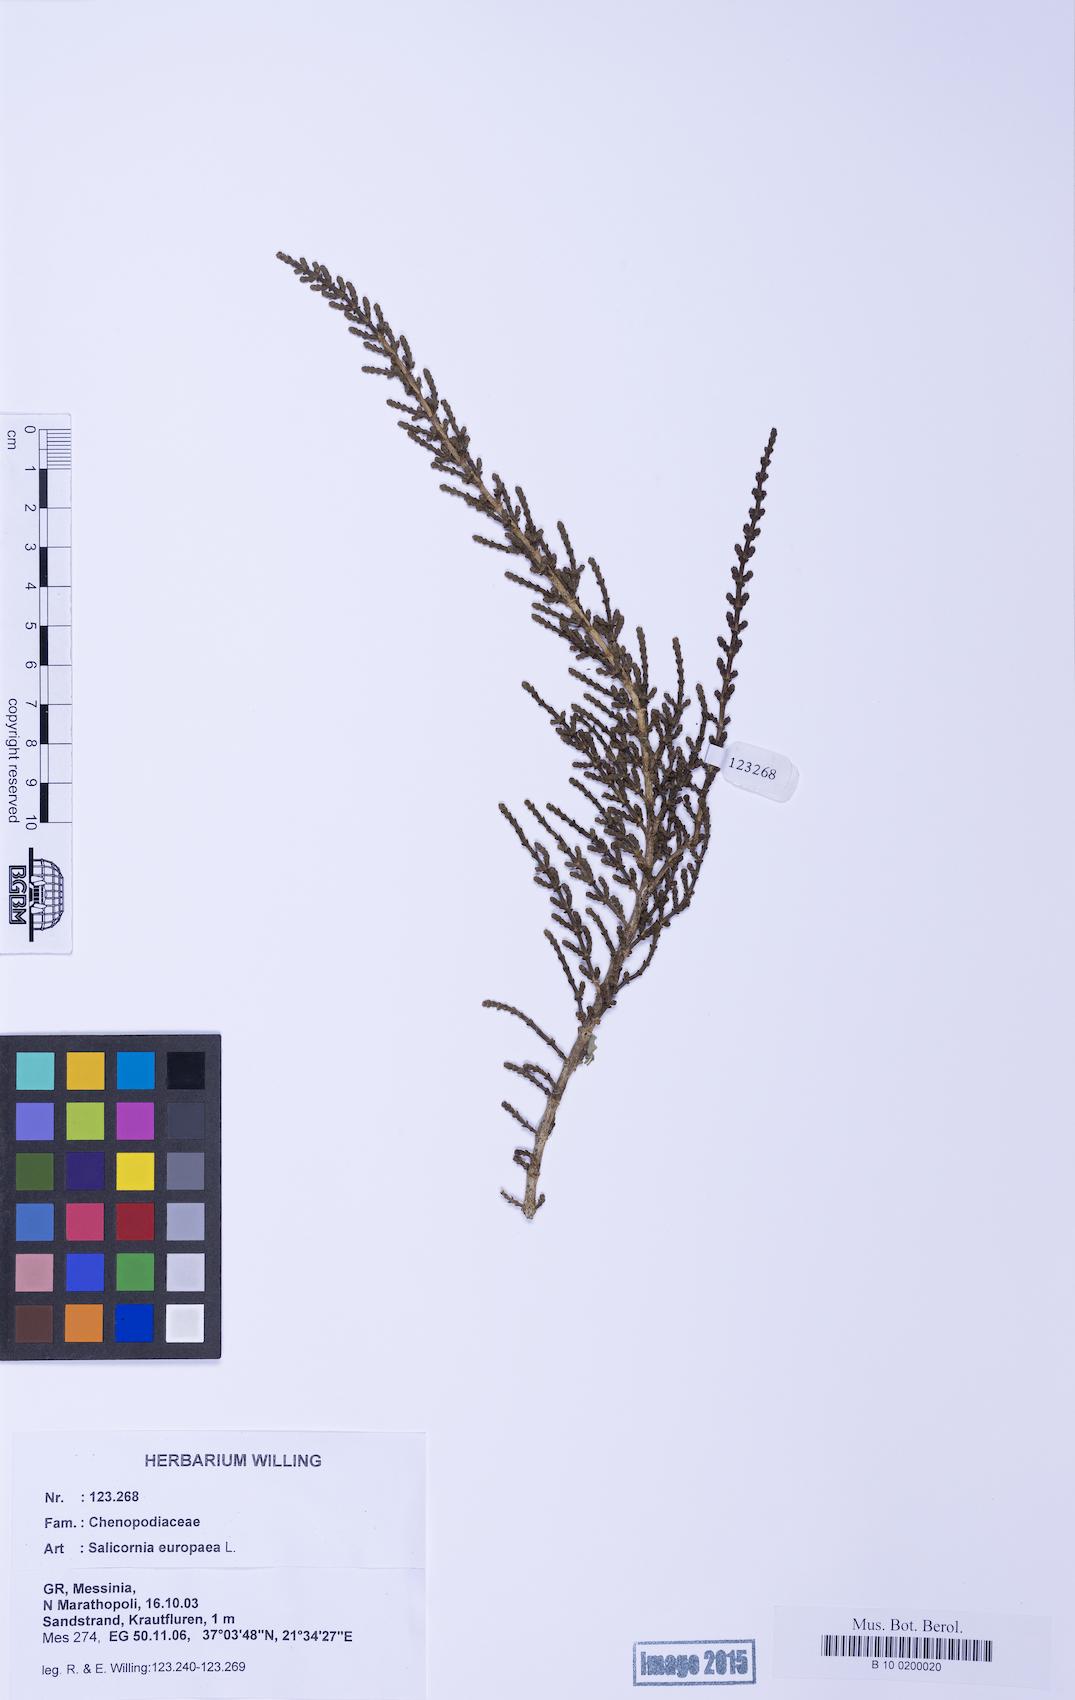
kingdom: Plantae
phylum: Tracheophyta
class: Magnoliopsida
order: Caryophyllales
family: Amaranthaceae
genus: Arthrocaulon
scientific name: Arthrocaulon macrostachyum
